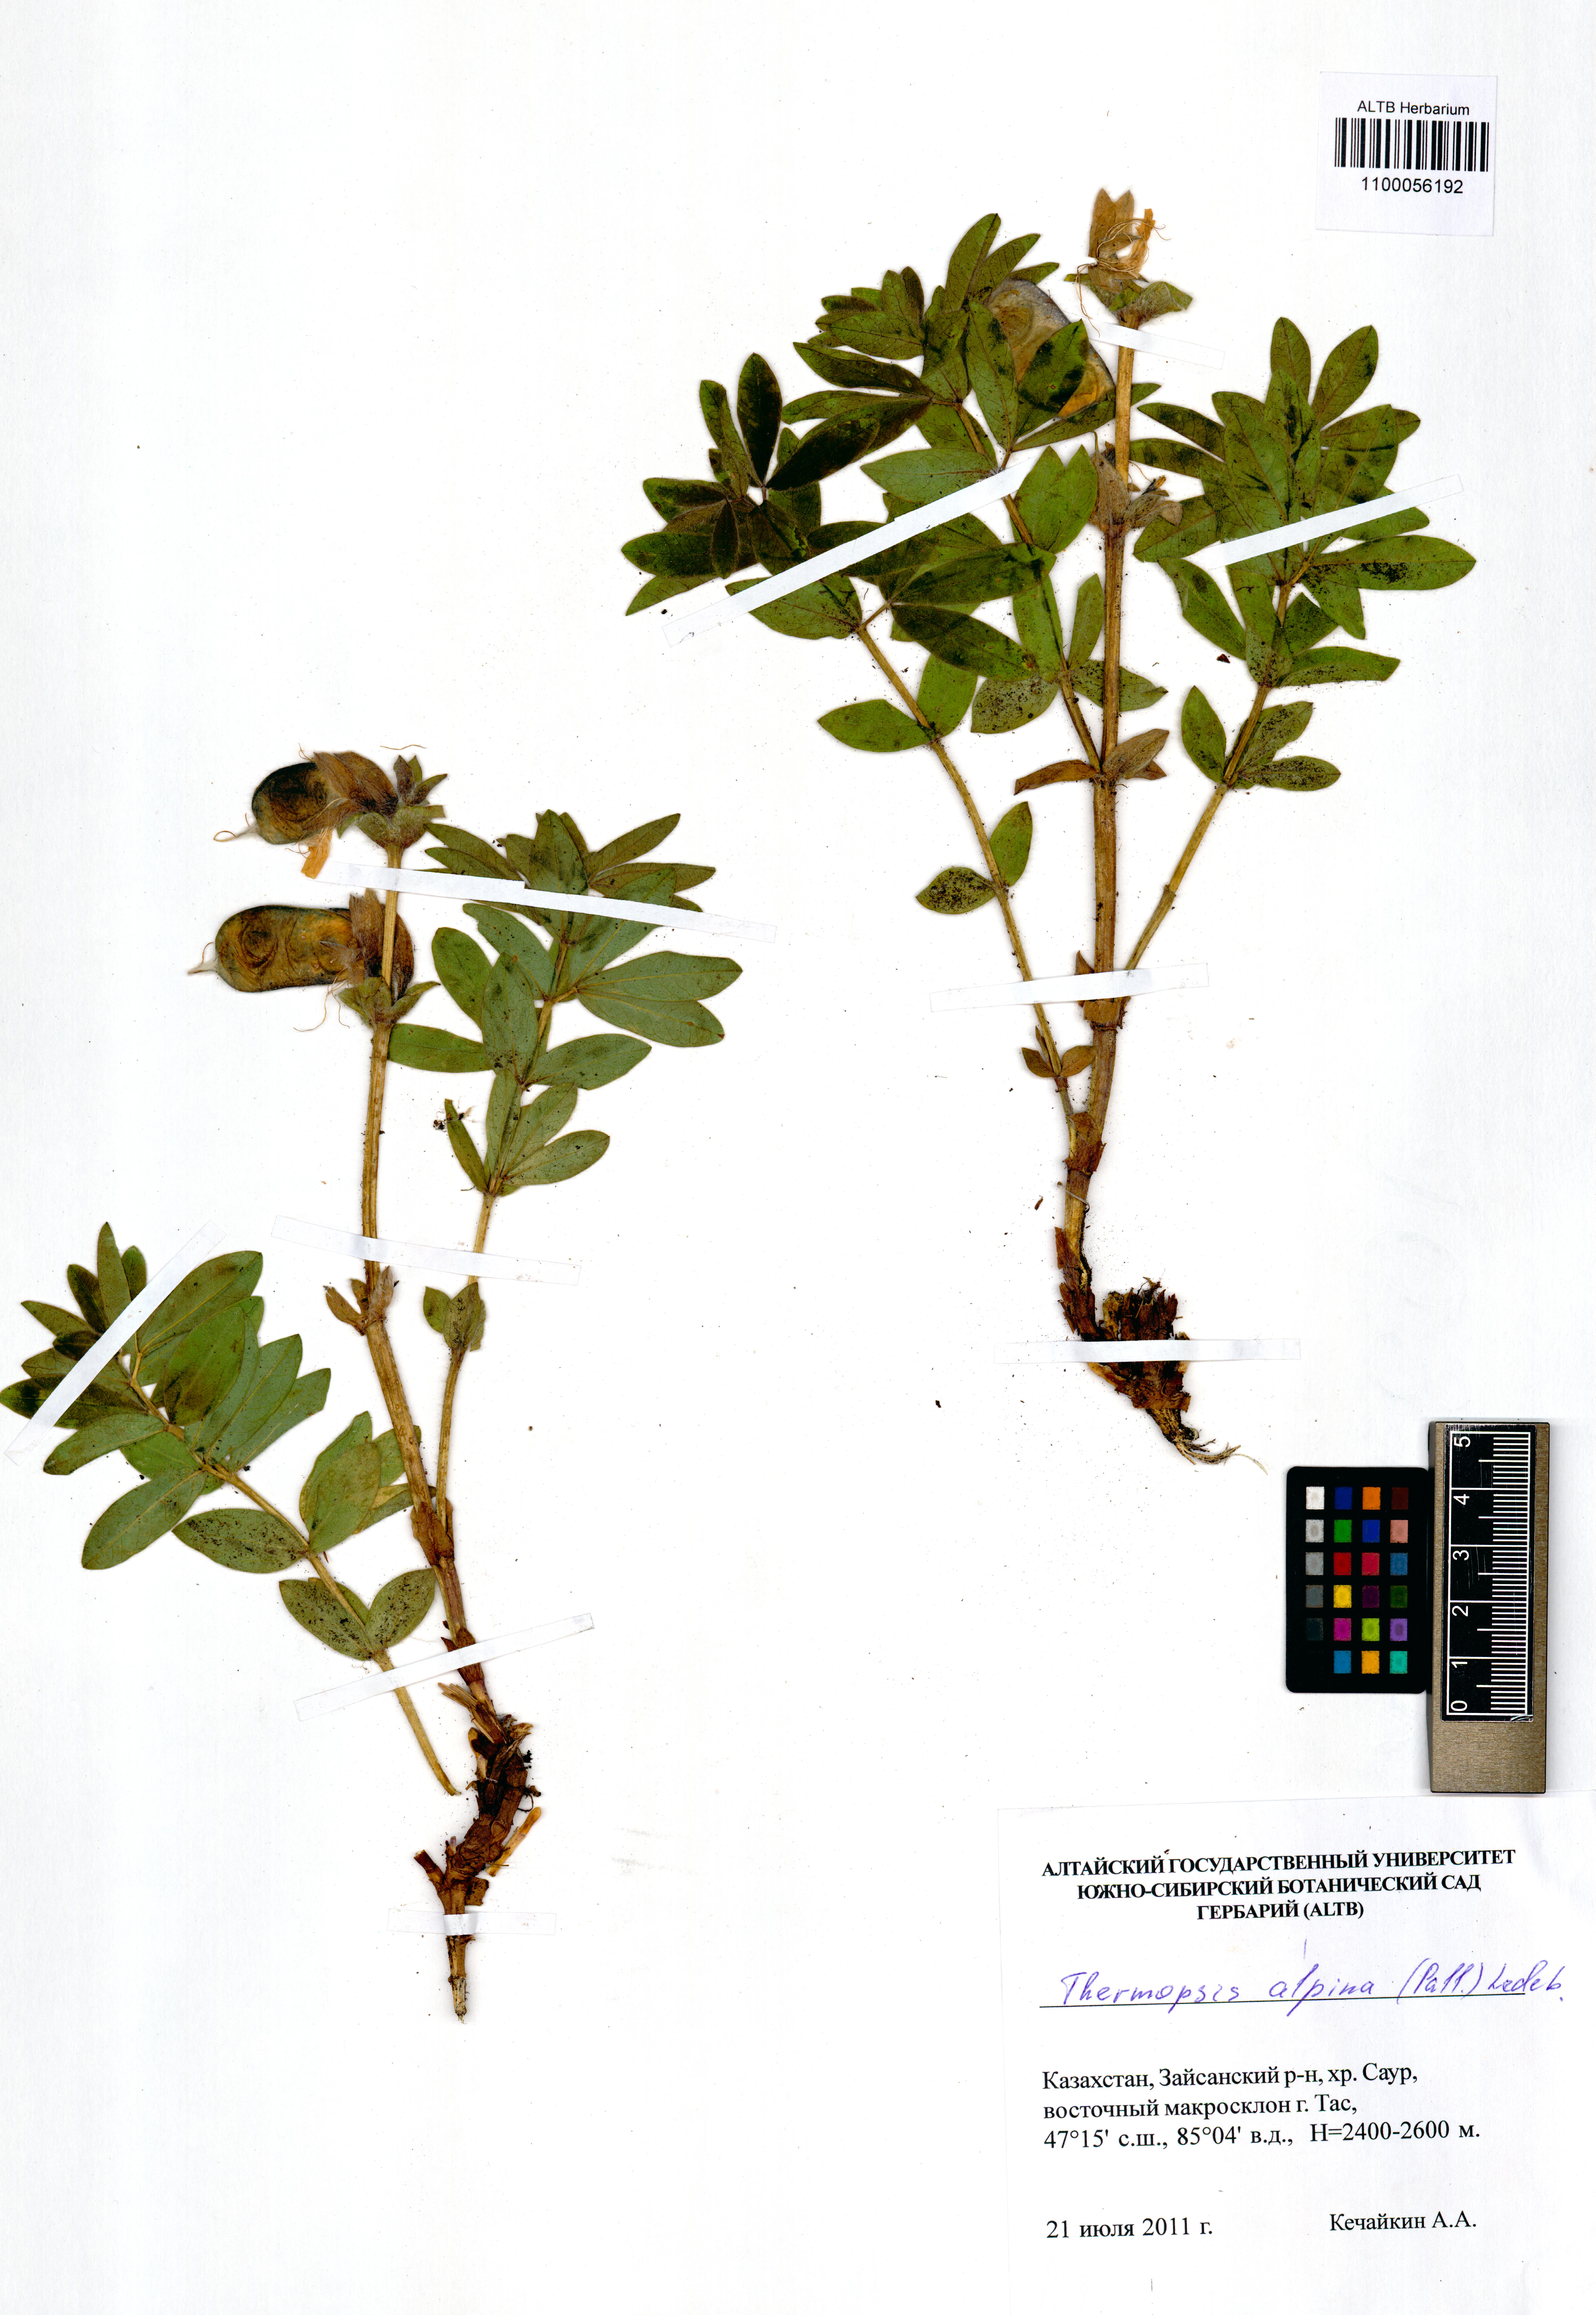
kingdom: Plantae
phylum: Tracheophyta
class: Magnoliopsida
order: Fabales
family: Fabaceae
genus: Thermopsis
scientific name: Thermopsis alpina
